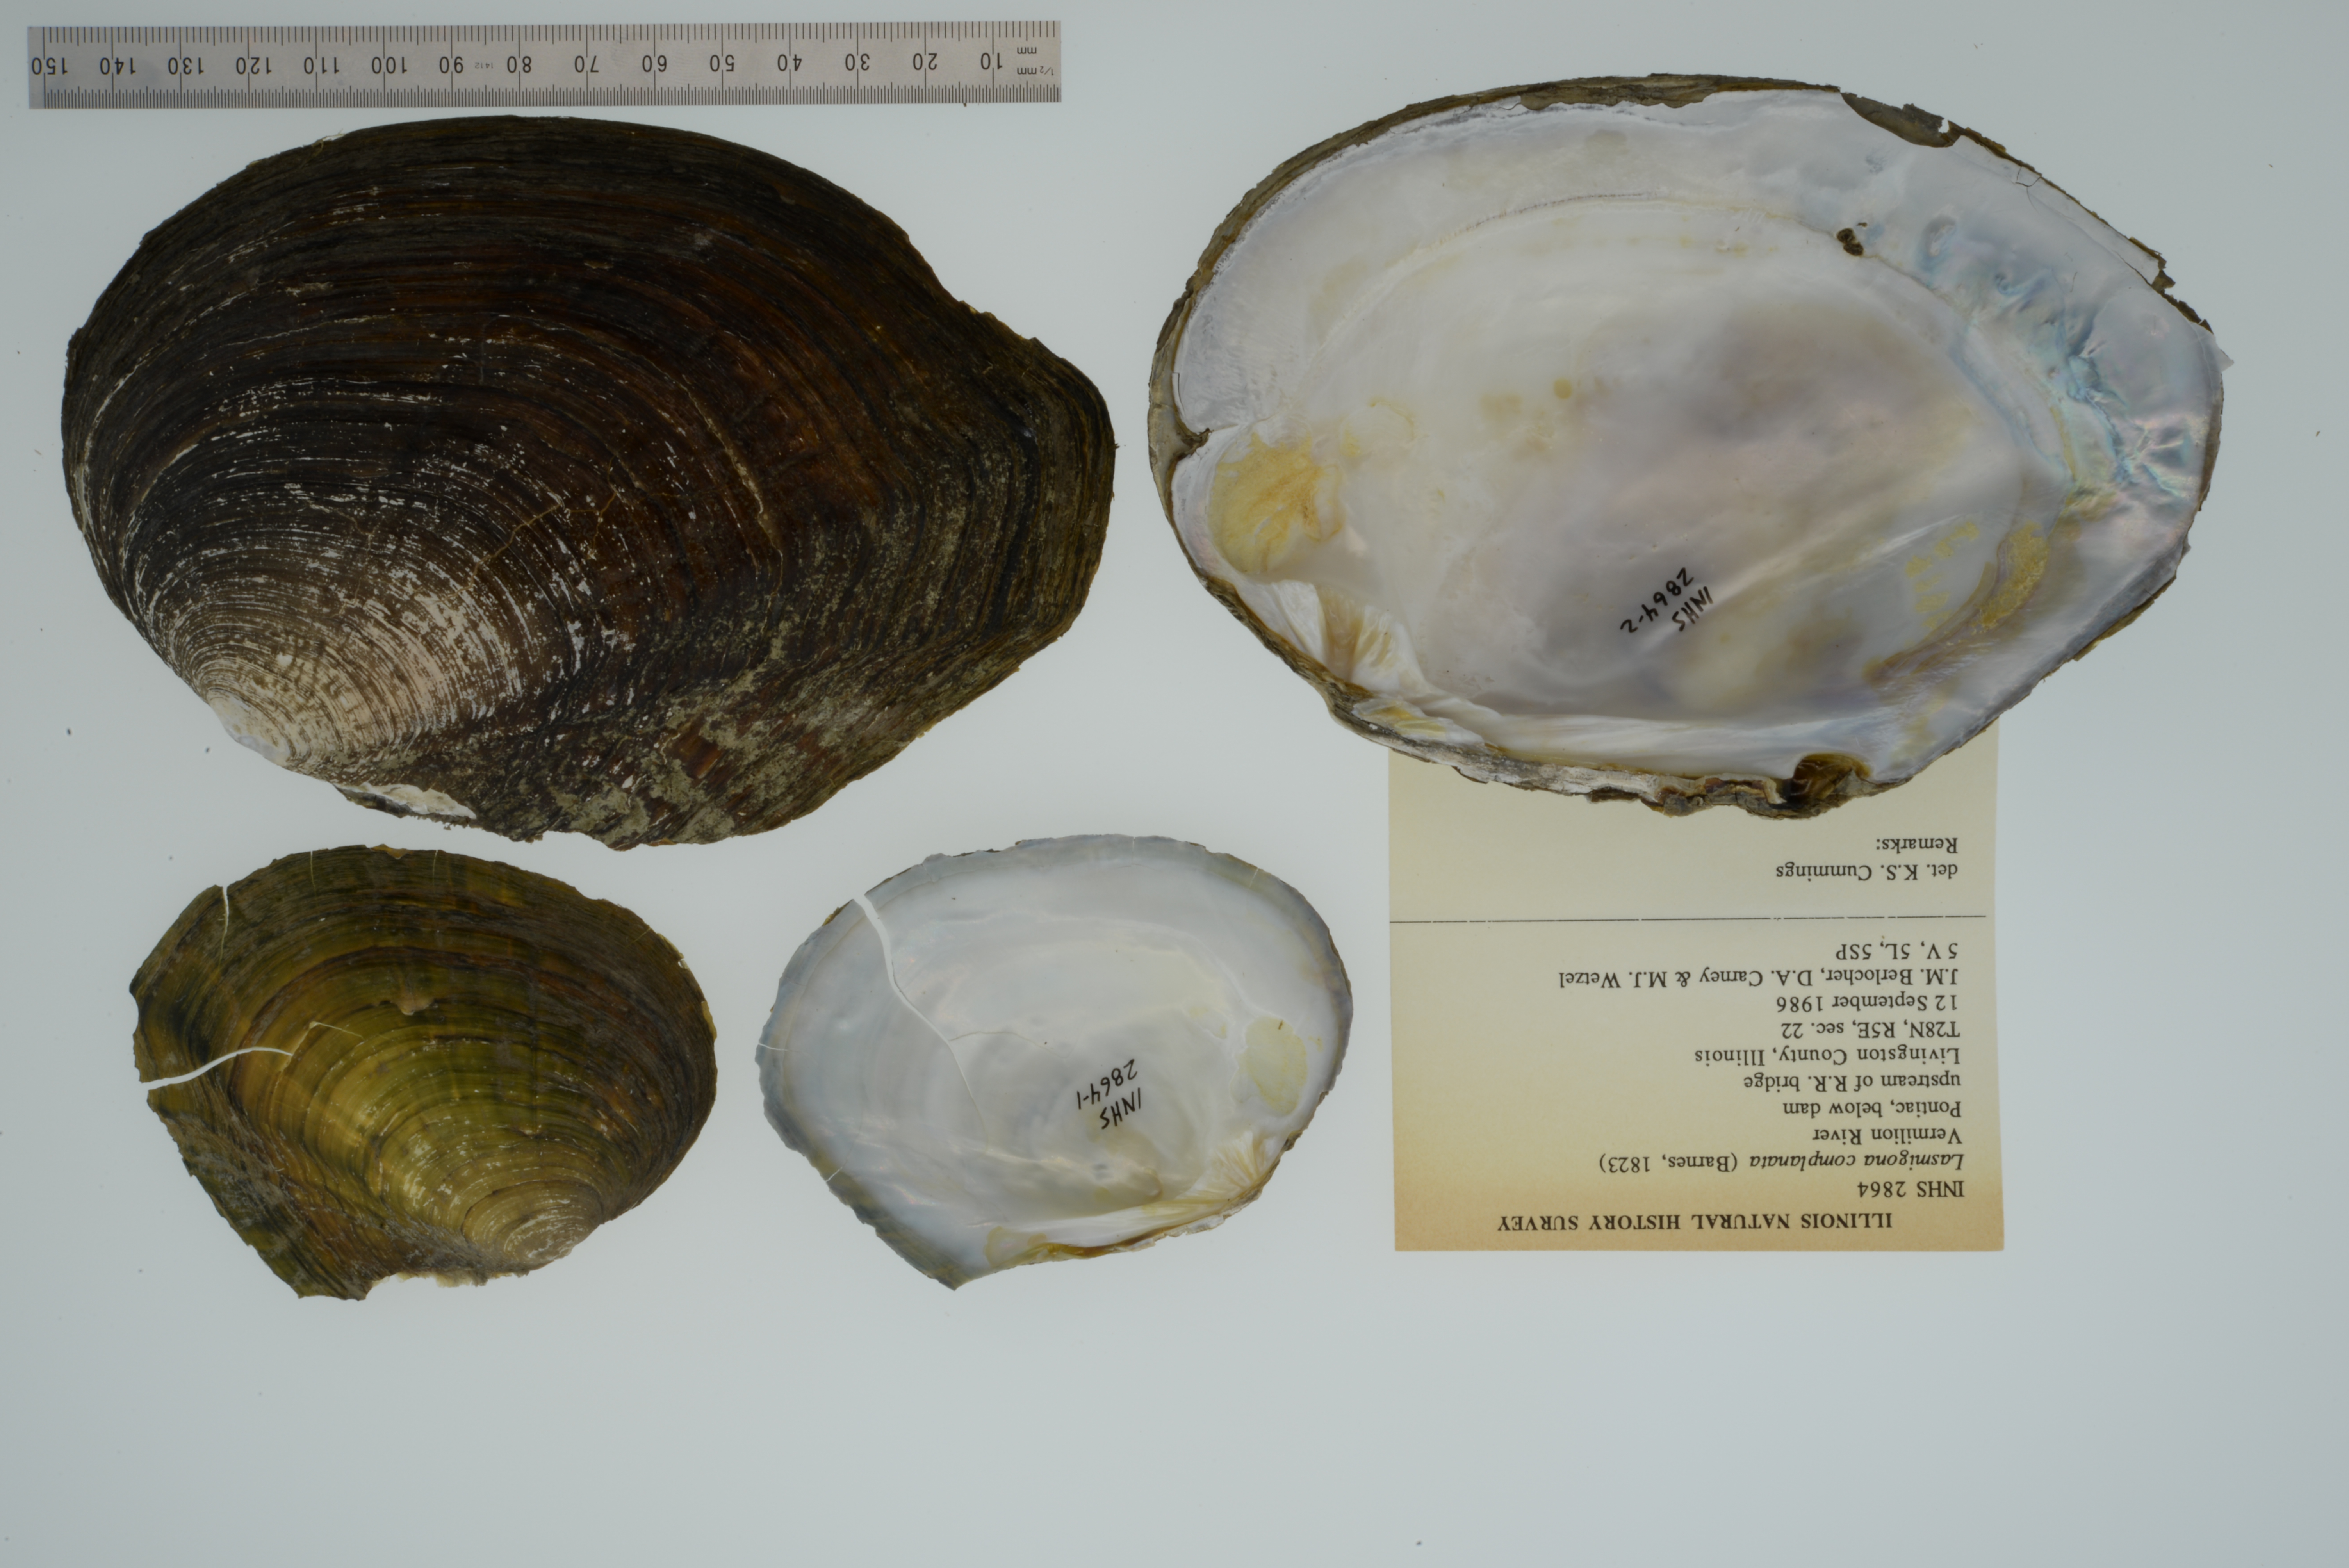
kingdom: Animalia
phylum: Mollusca
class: Bivalvia
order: Unionida
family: Unionidae
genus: Lasmigona
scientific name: Lasmigona complanata
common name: White heelsplitter
